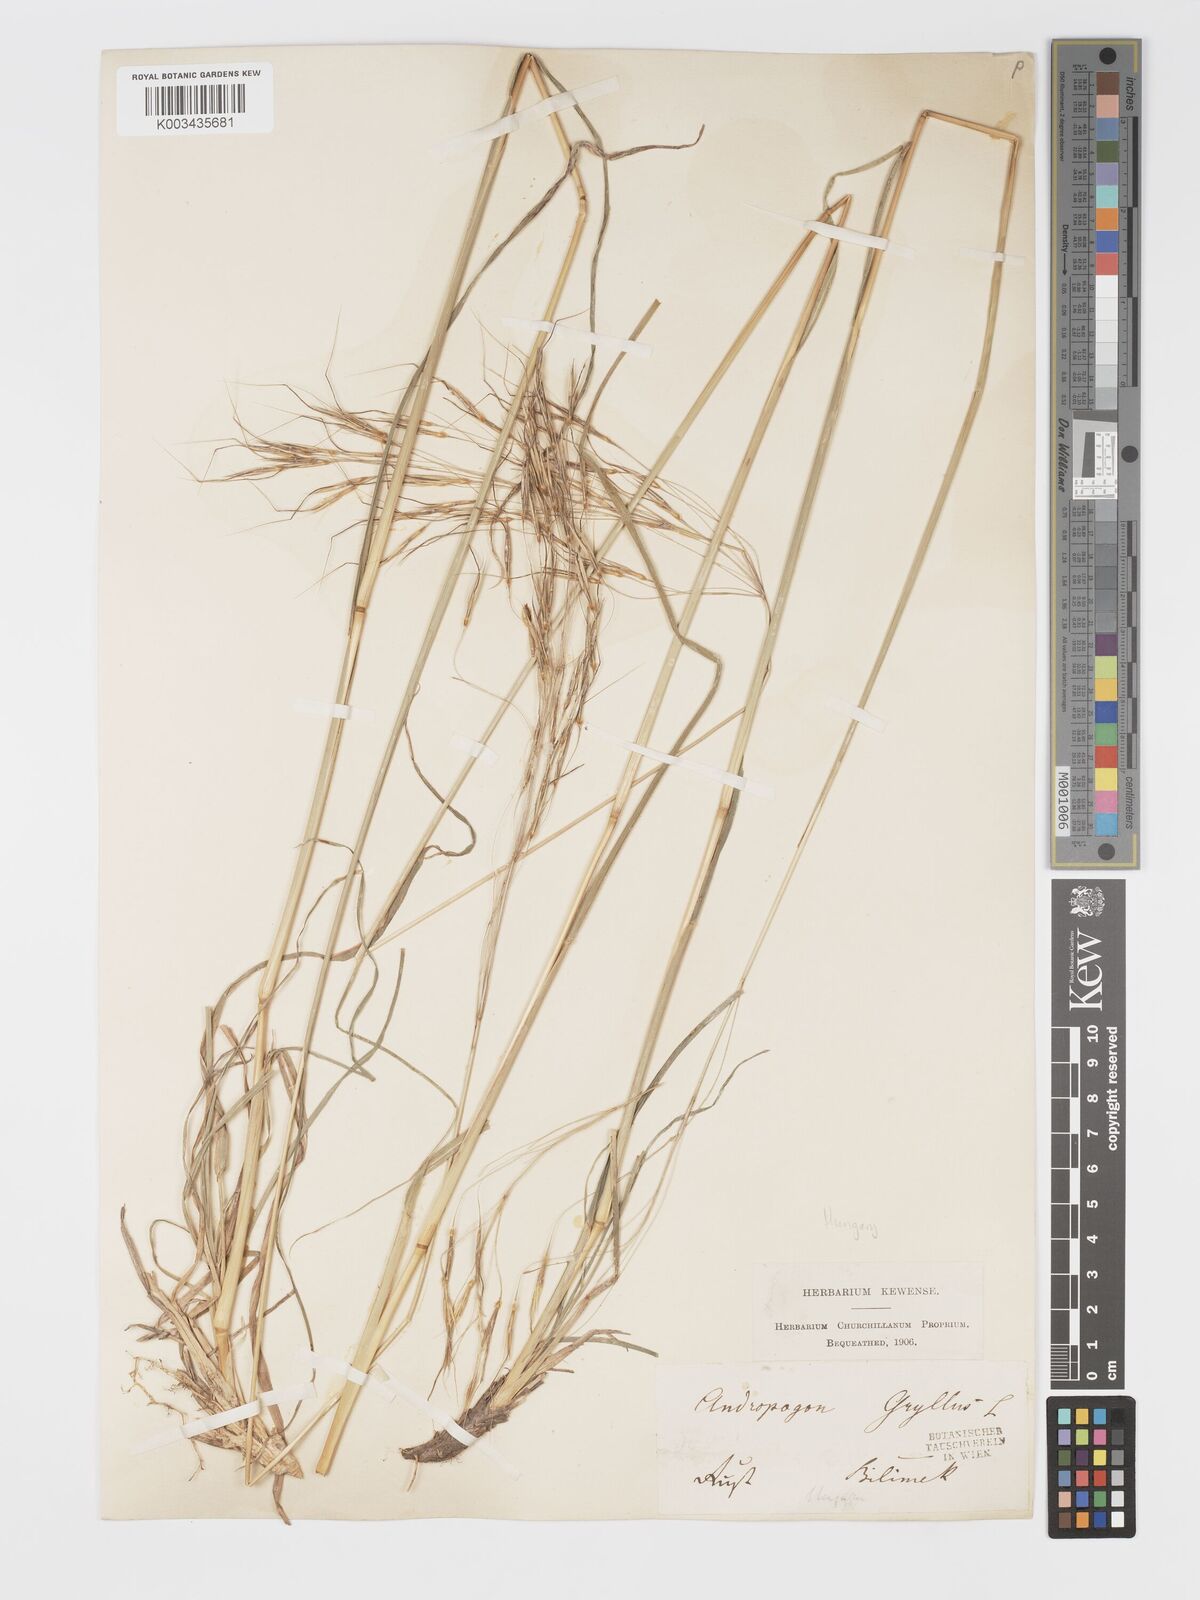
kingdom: Plantae
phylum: Tracheophyta
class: Liliopsida
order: Poales
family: Poaceae
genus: Chrysopogon
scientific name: Chrysopogon gryllus
